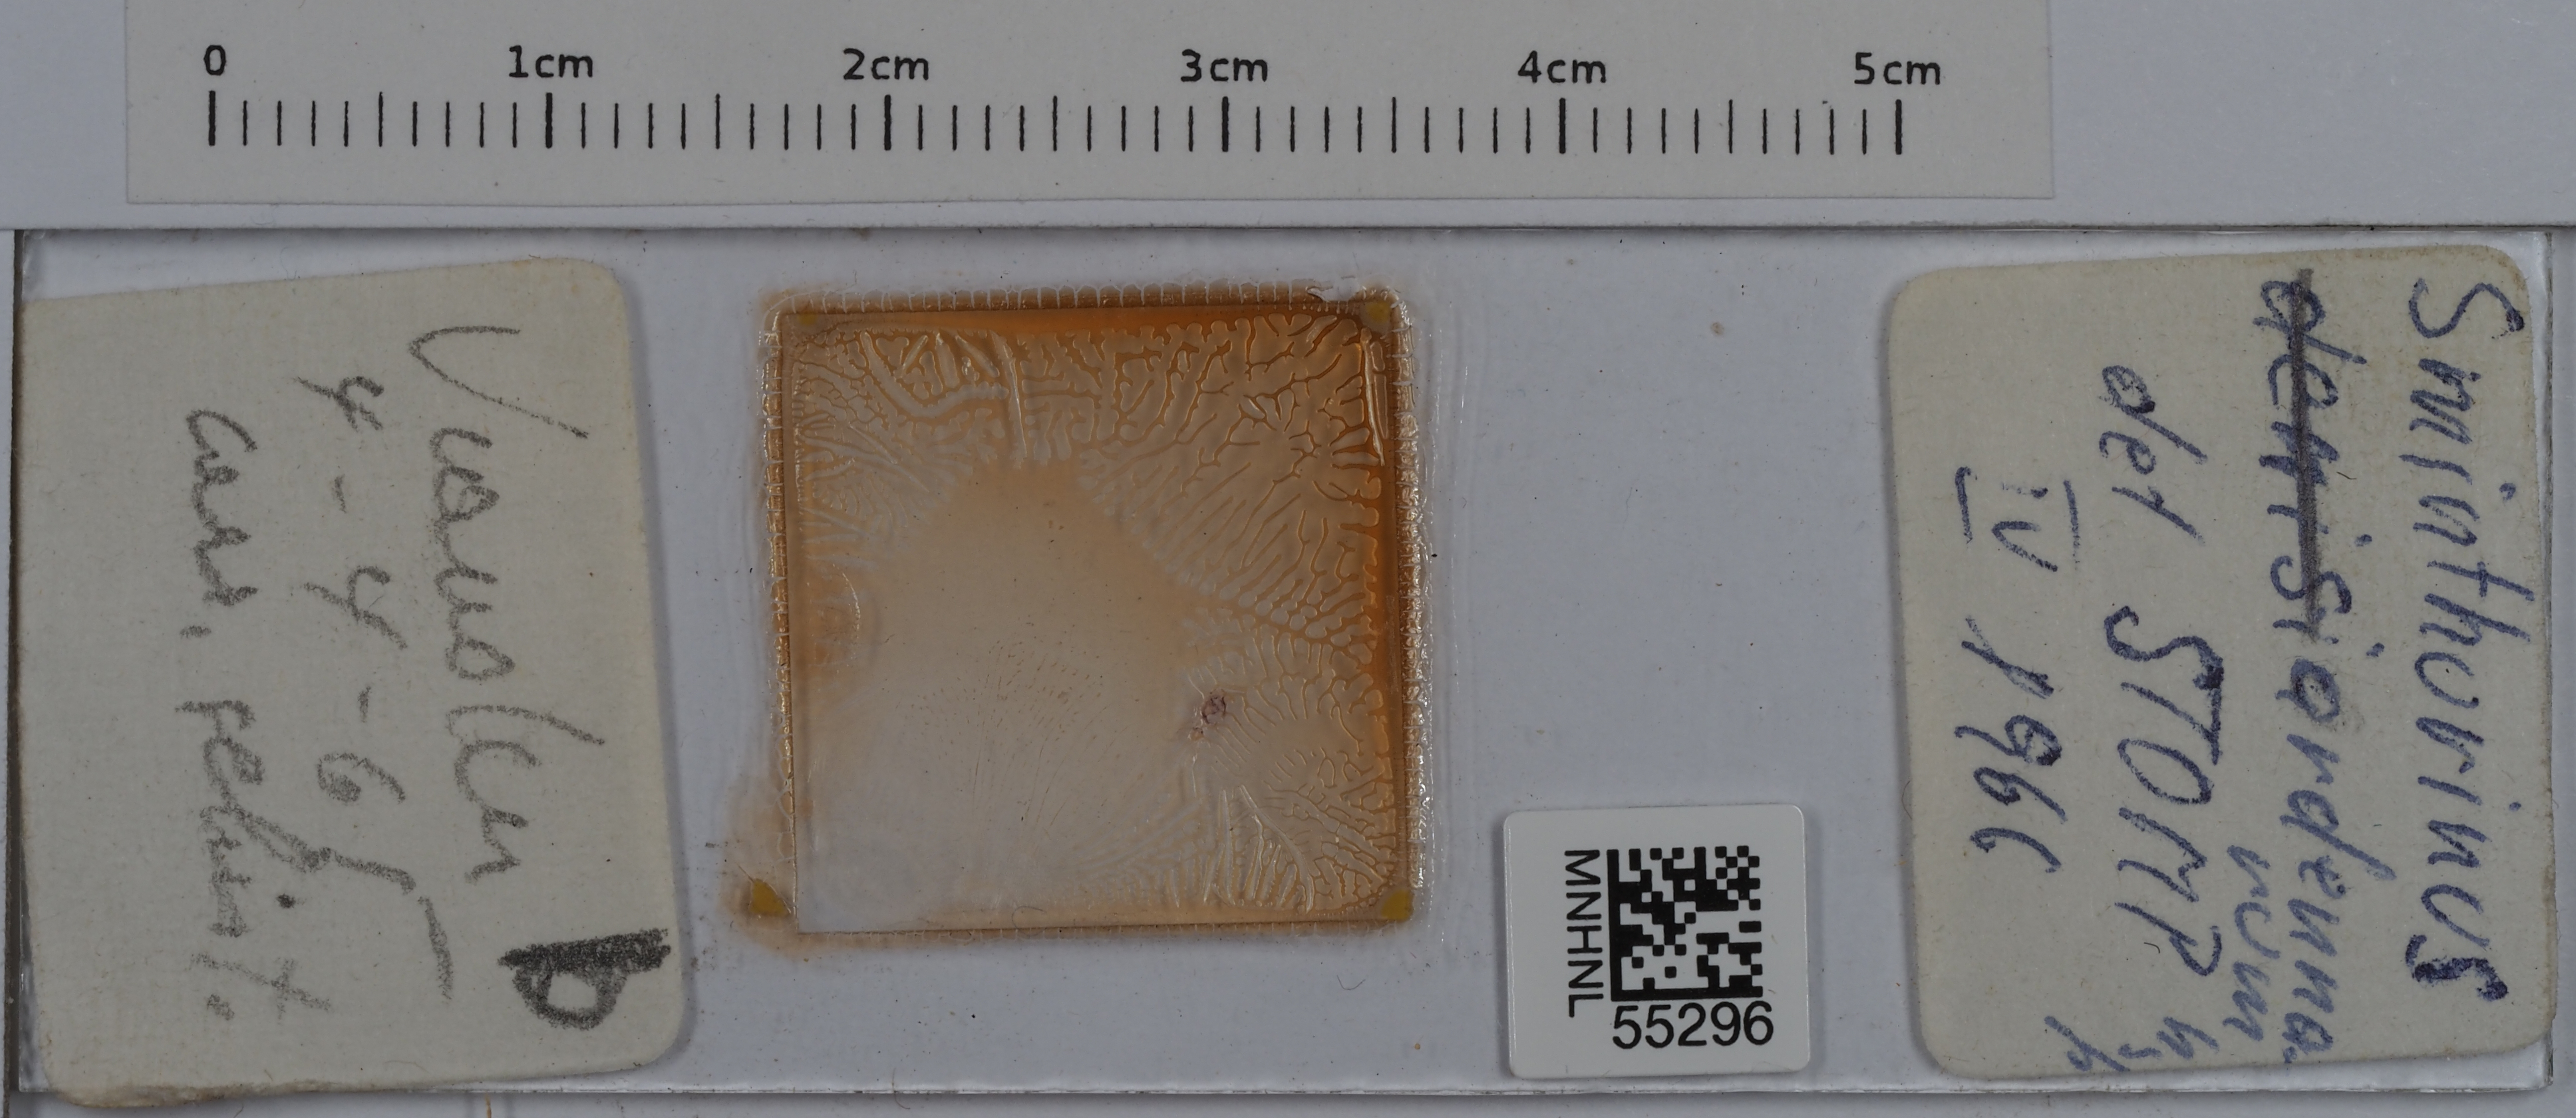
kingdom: Animalia
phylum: Arthropoda
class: Collembola
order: Symphypleona
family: Katiannidae
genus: Sminthurinus
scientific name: Sminthurinus
